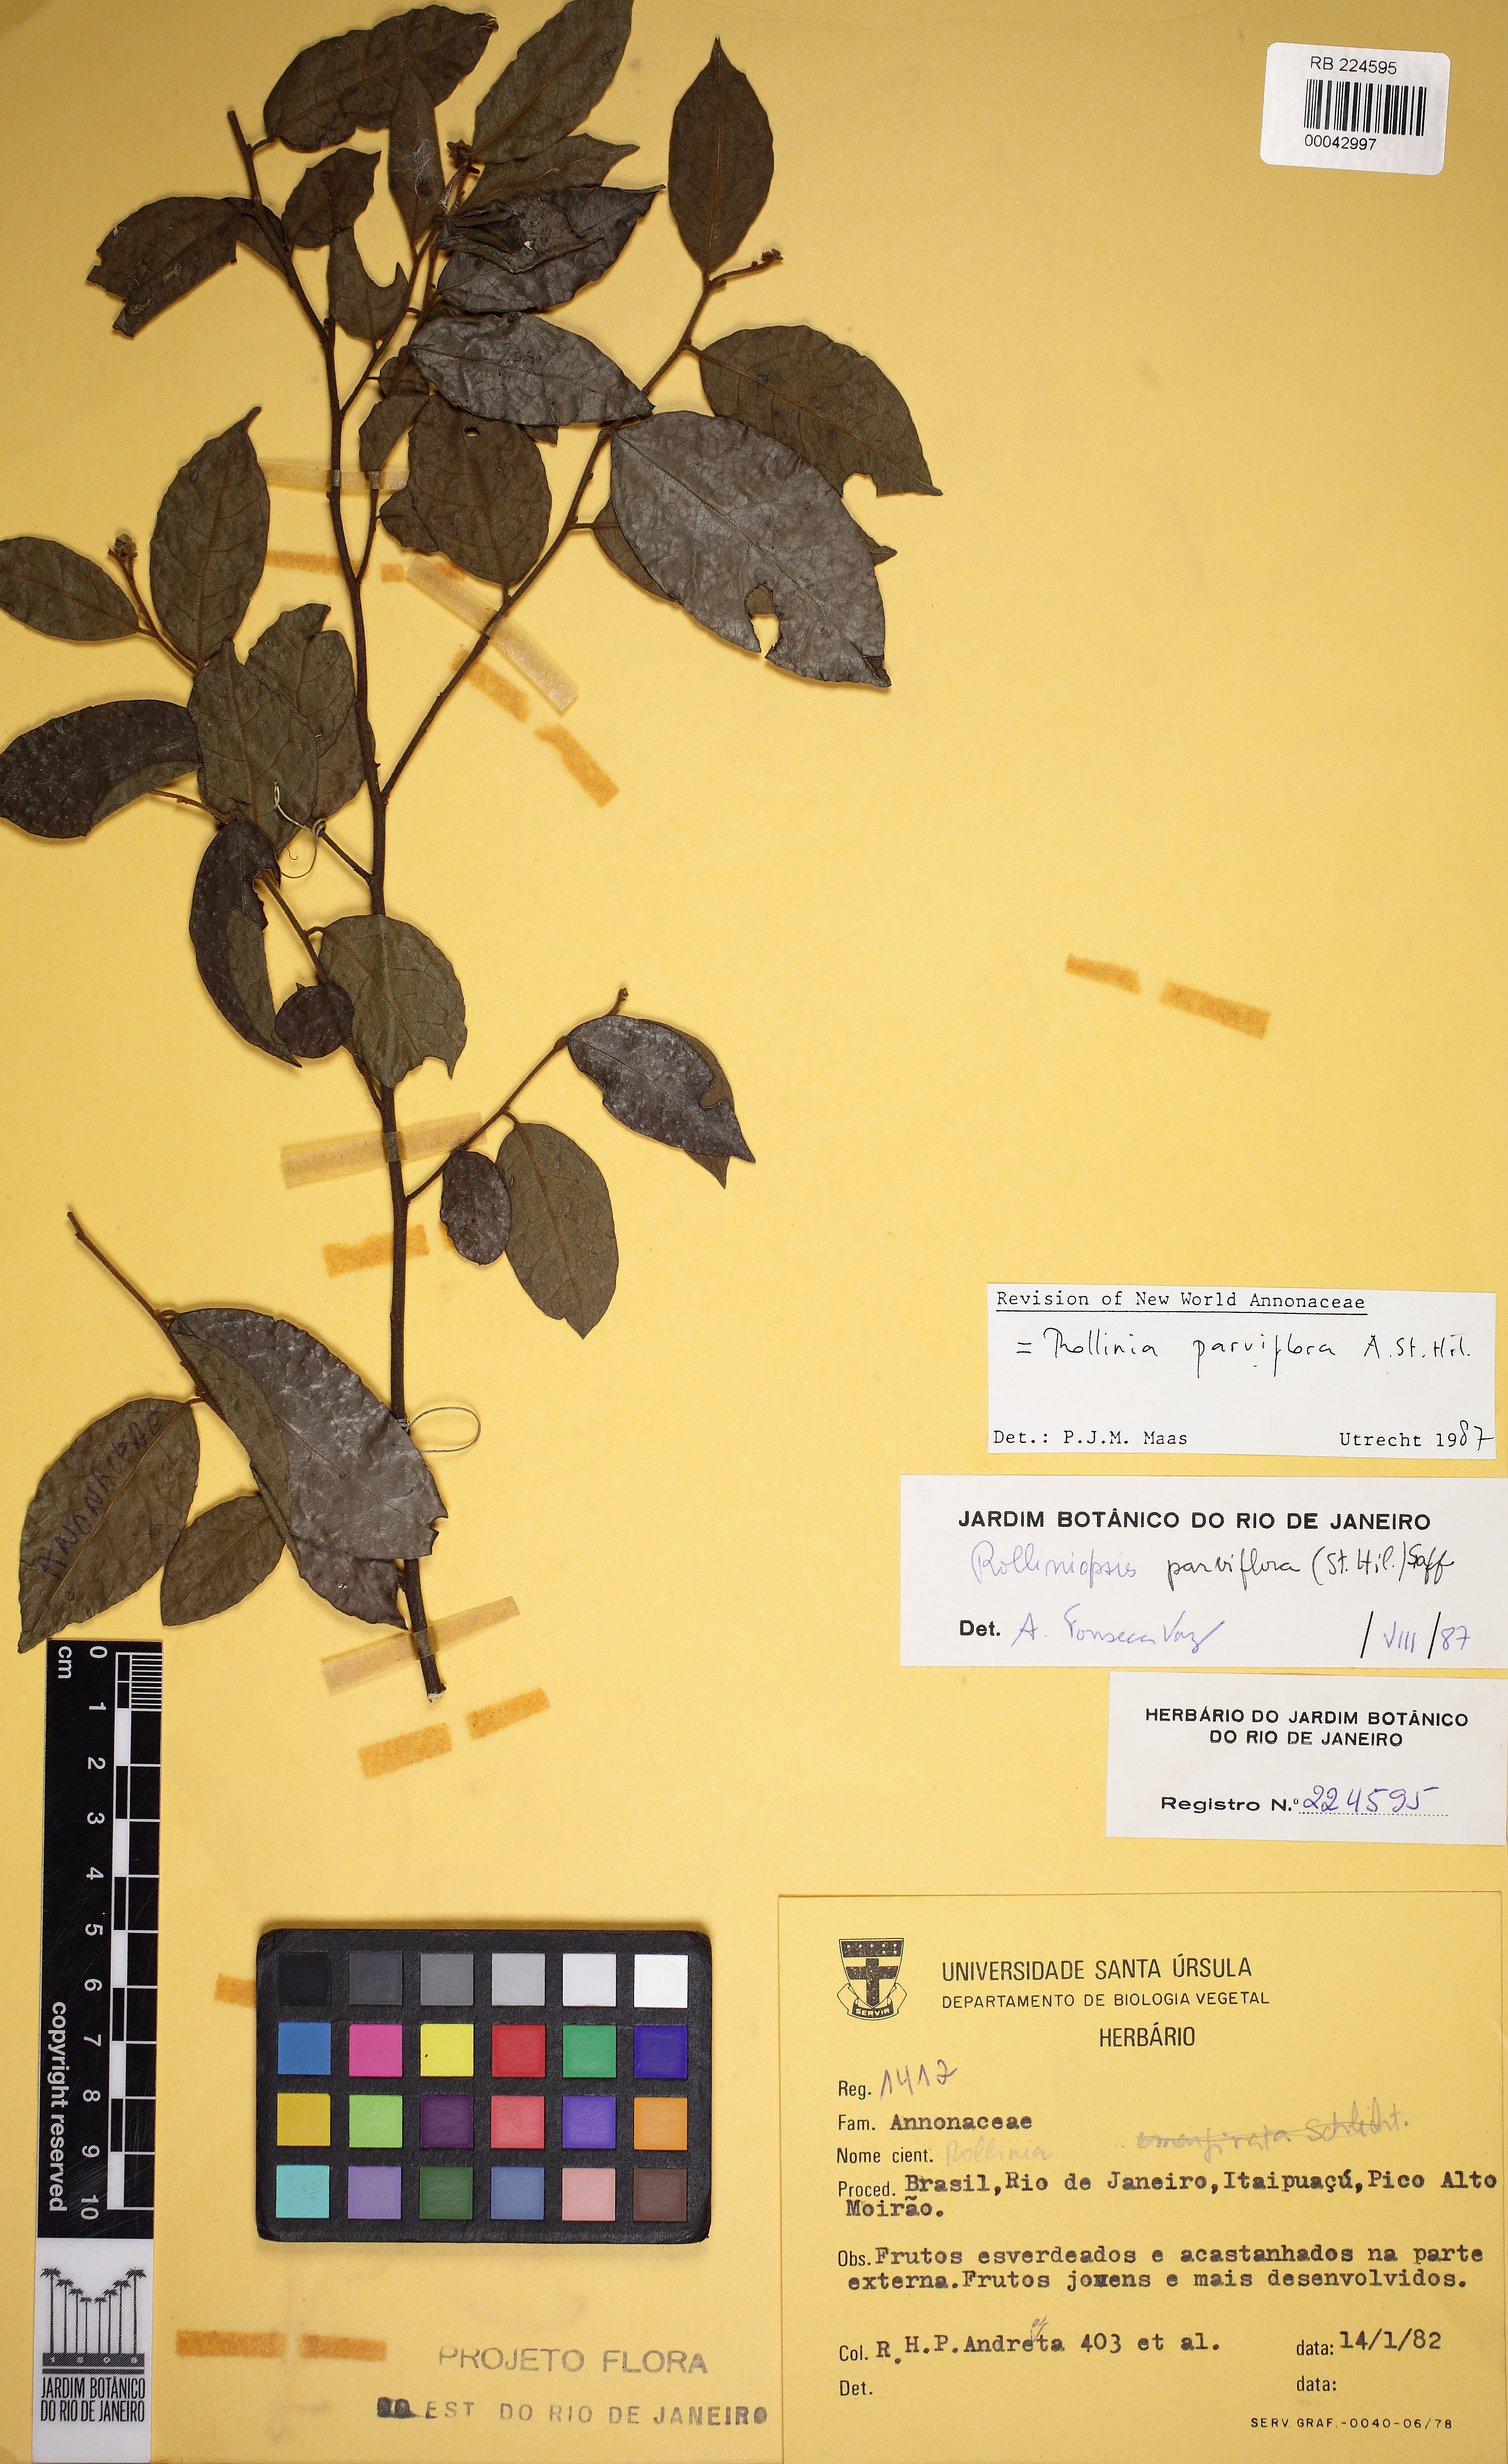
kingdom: Plantae
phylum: Tracheophyta
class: Magnoliopsida
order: Magnoliales
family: Annonaceae
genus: Annona
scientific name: Annona parviflora
